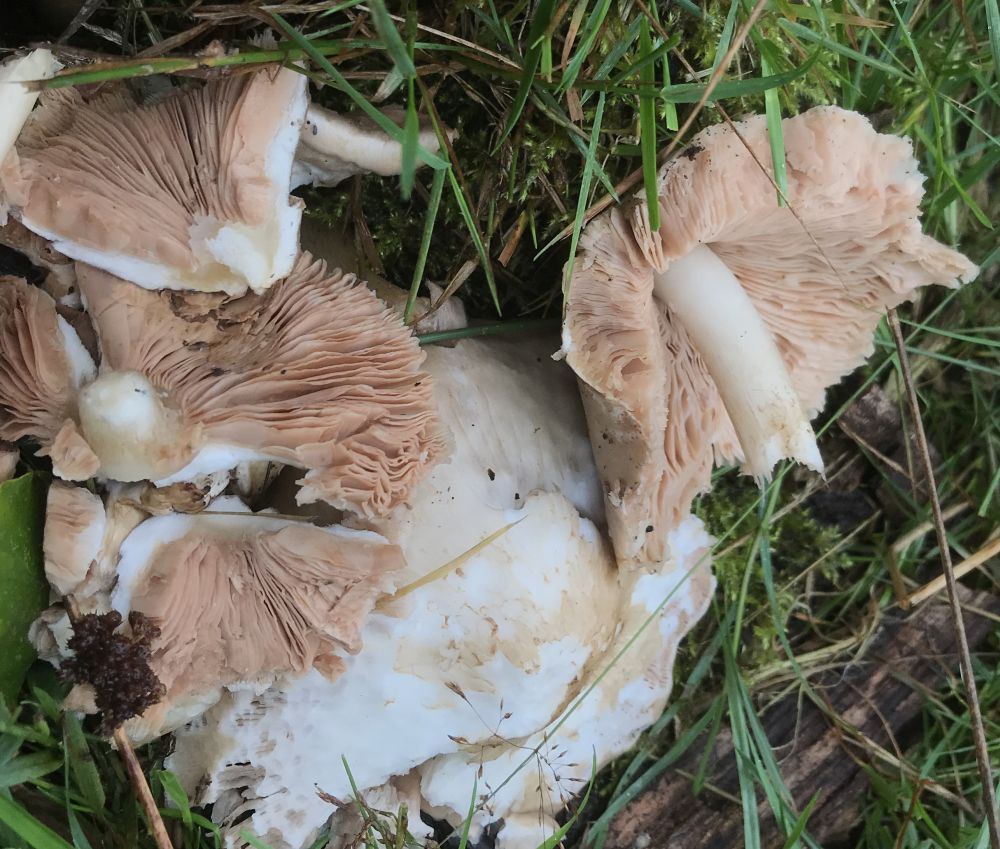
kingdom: Fungi
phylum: Basidiomycota
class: Agaricomycetes
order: Agaricales
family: Pluteaceae
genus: Pluteus
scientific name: Pluteus
